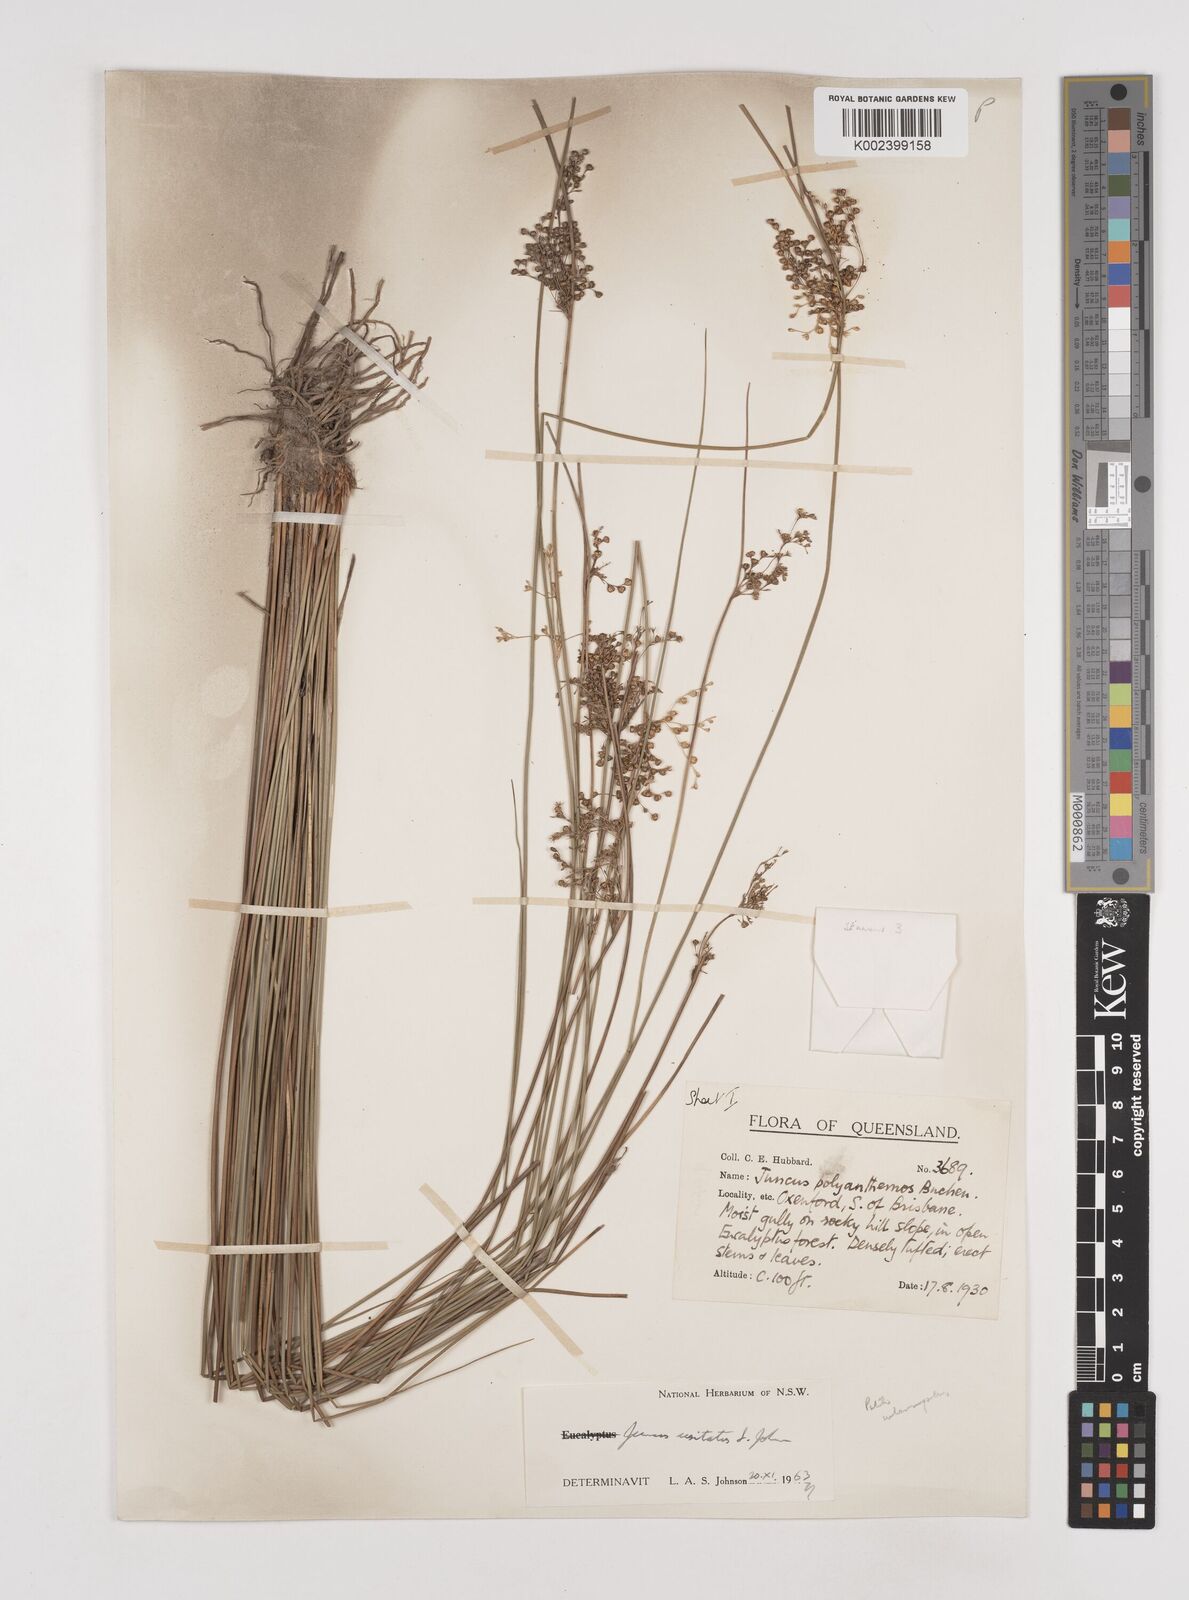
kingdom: Plantae
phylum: Tracheophyta
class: Liliopsida
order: Poales
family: Juncaceae
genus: Juncus
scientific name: Juncus usitatus
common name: Rush
